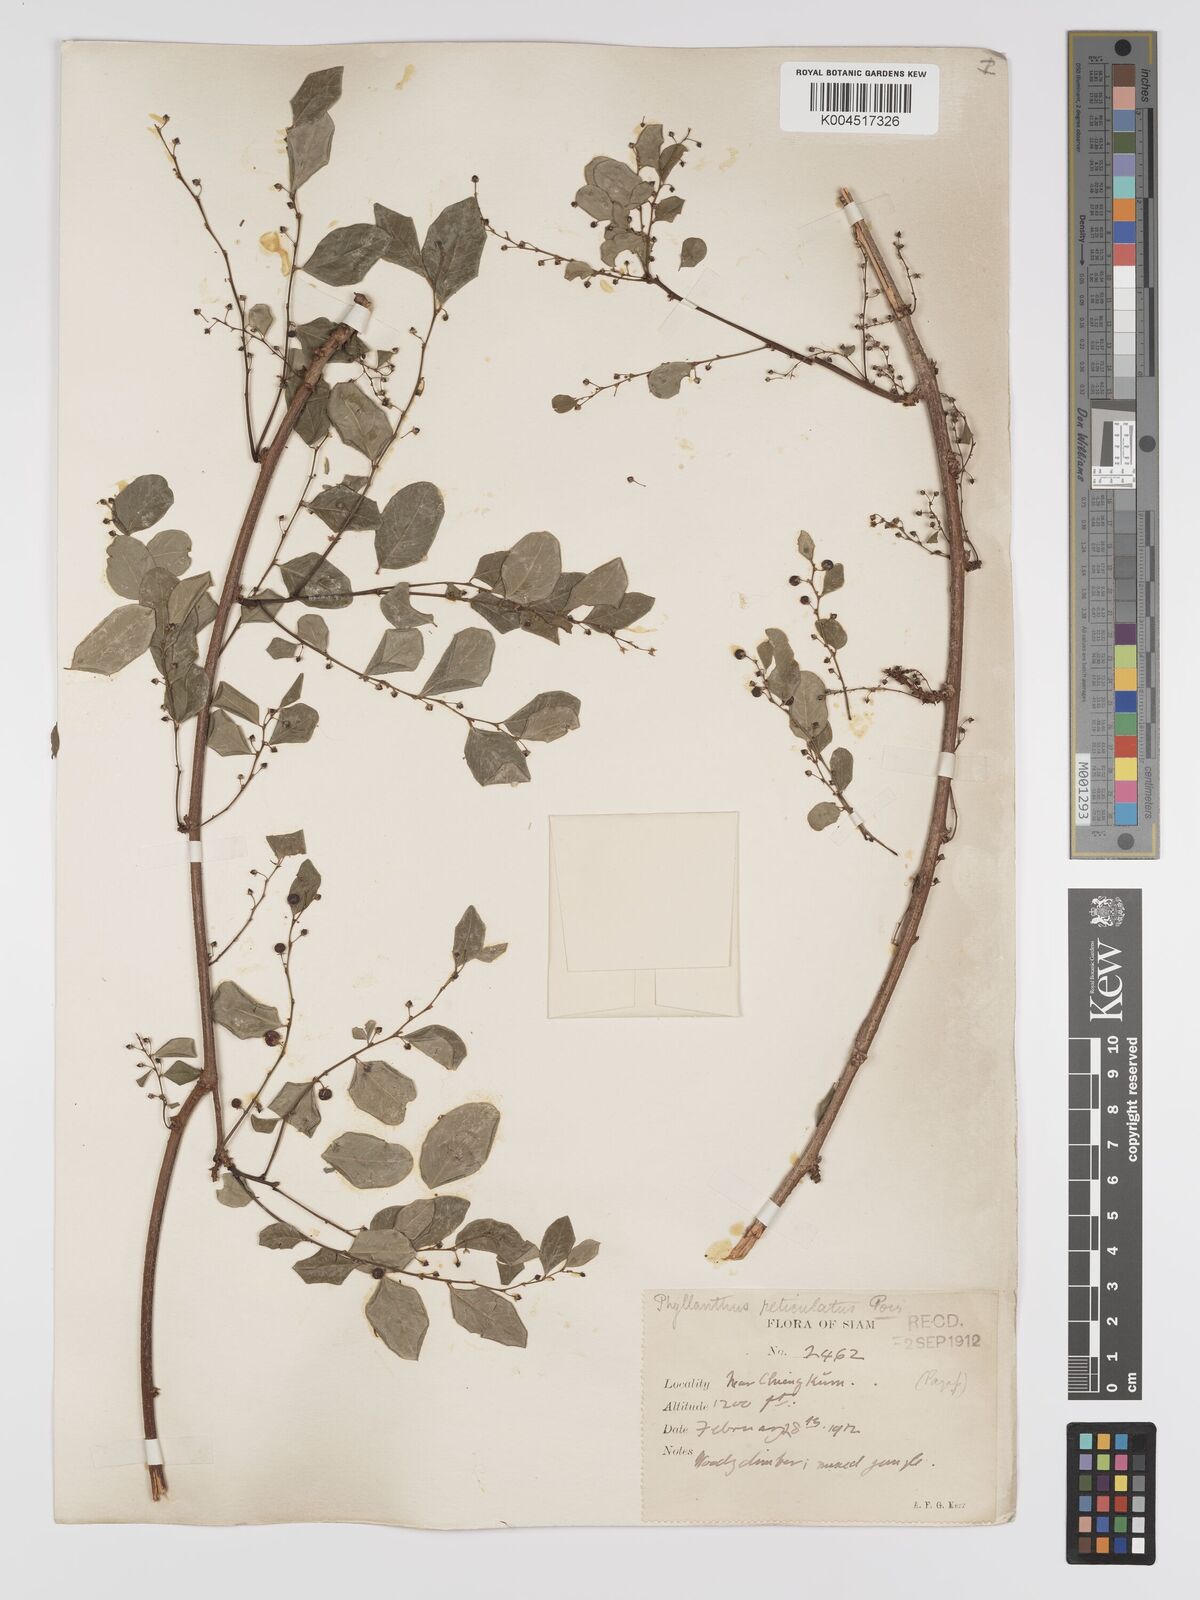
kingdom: Plantae
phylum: Tracheophyta
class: Magnoliopsida
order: Malpighiales
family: Phyllanthaceae
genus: Phyllanthus
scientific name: Phyllanthus reticulatus
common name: Potato bush
